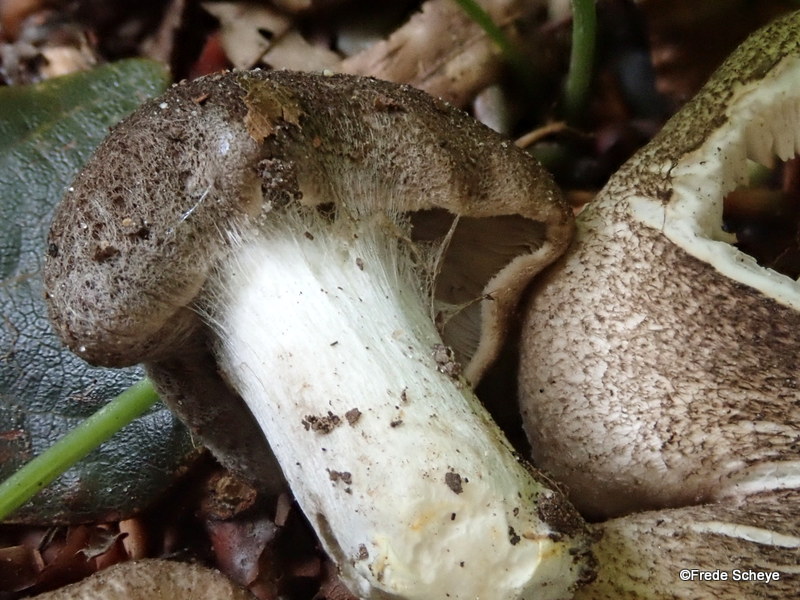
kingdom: Fungi
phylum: Basidiomycota
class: Agaricomycetes
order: Agaricales
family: Tricholomataceae
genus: Tricholoma
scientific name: Tricholoma scalpturatum
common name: gulplettet ridderhat
